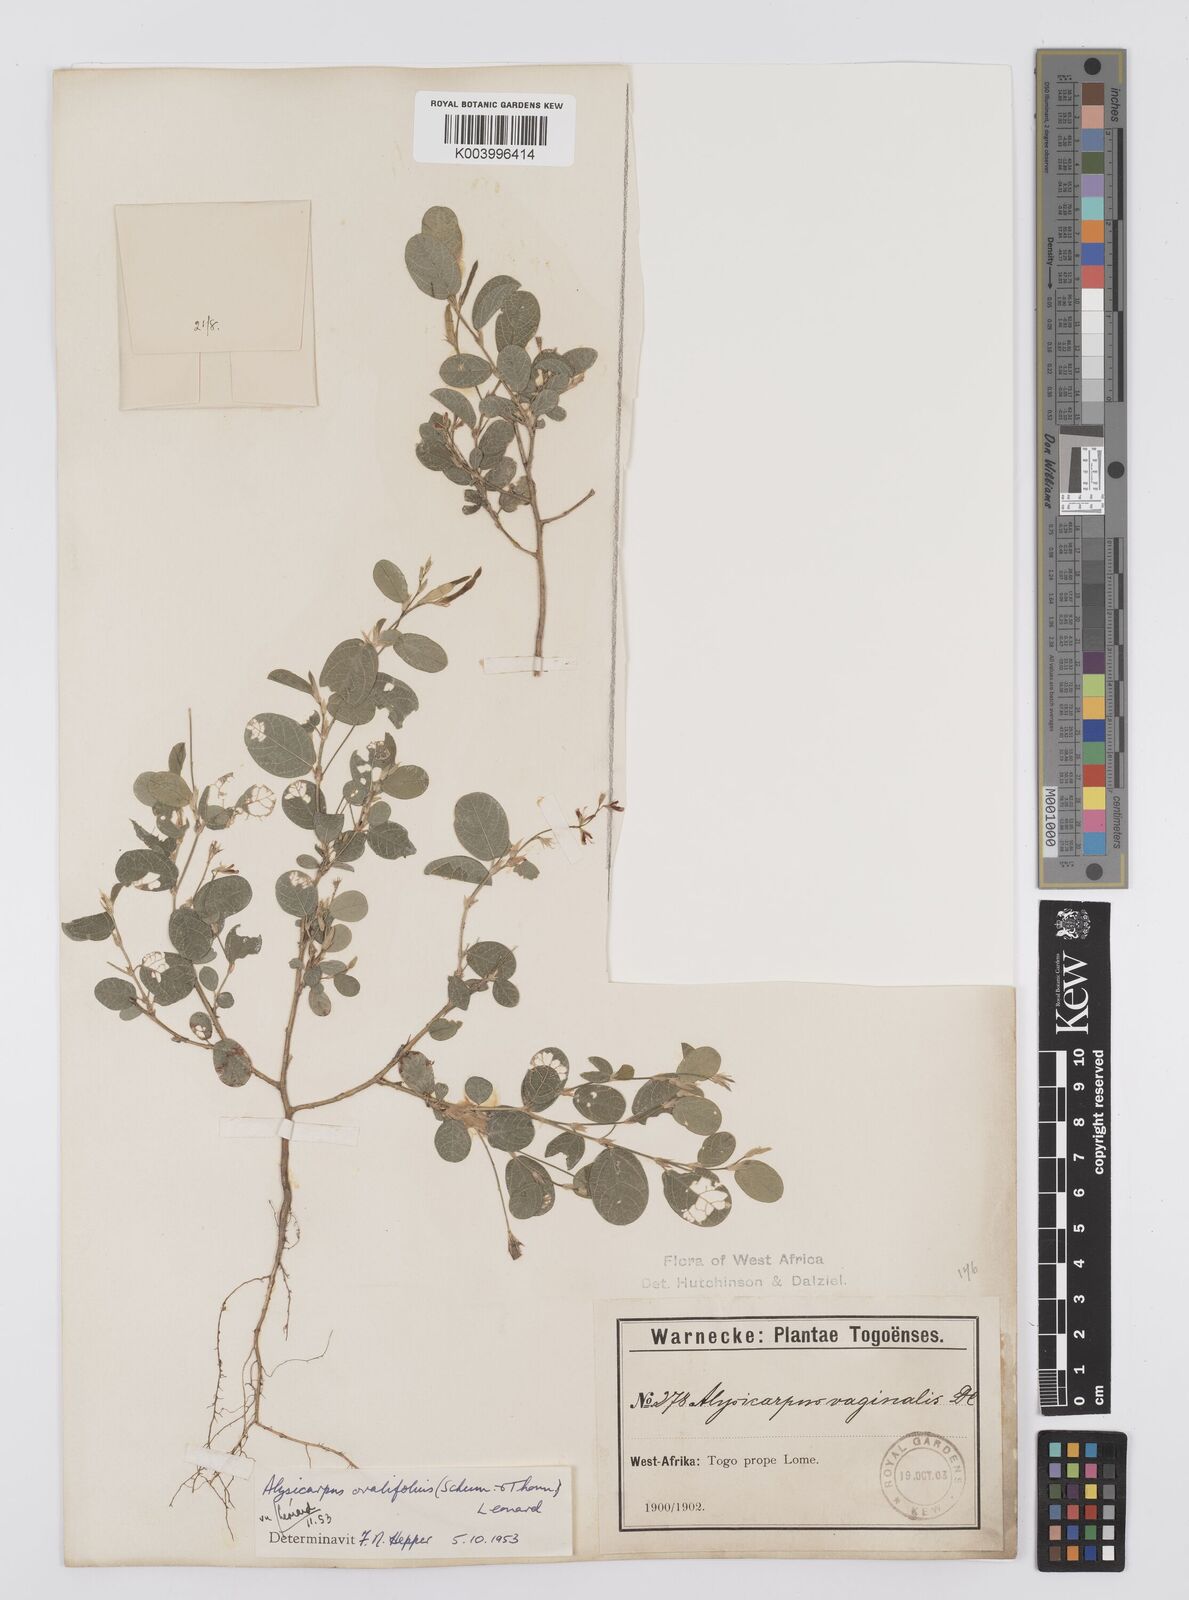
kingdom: Plantae
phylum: Tracheophyta
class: Magnoliopsida
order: Fabales
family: Fabaceae
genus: Alysicarpus
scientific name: Alysicarpus ovalifolius
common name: Alyce clover
